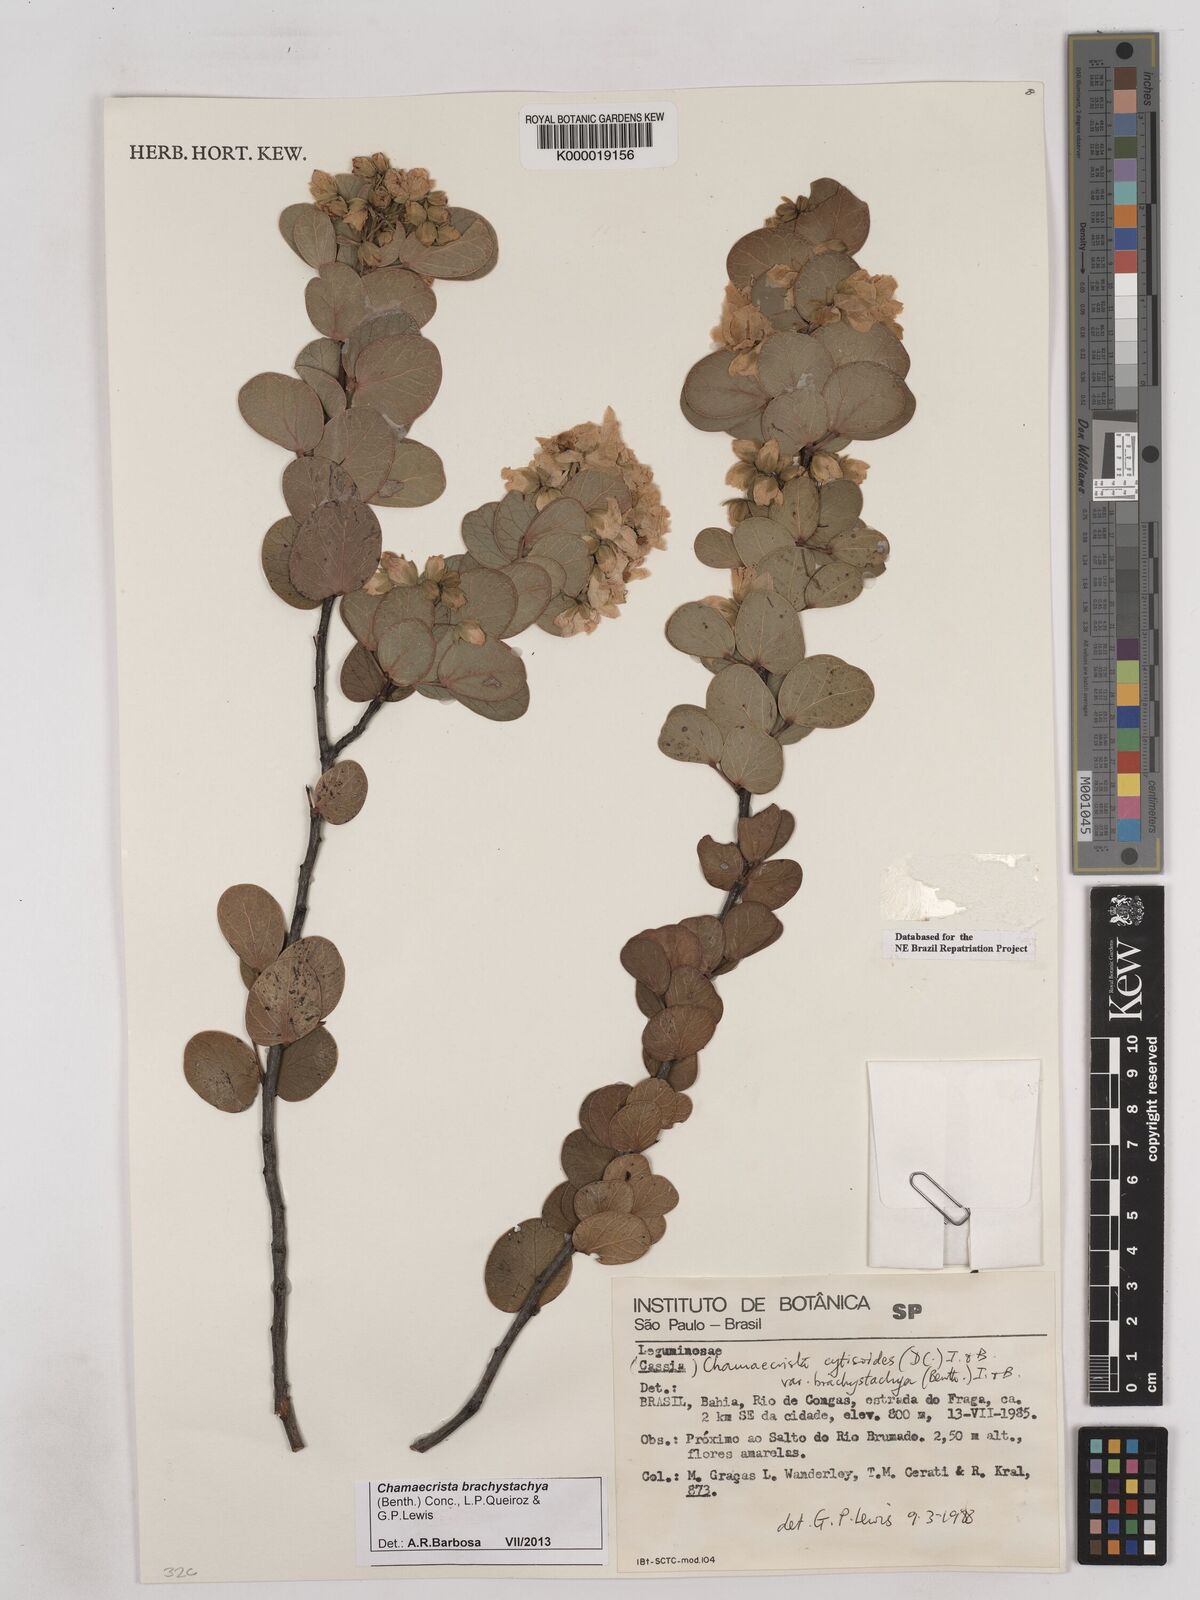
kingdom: Plantae
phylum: Tracheophyta
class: Magnoliopsida
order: Fabales
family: Fabaceae
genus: Chamaecrista
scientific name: Chamaecrista cytisoides
